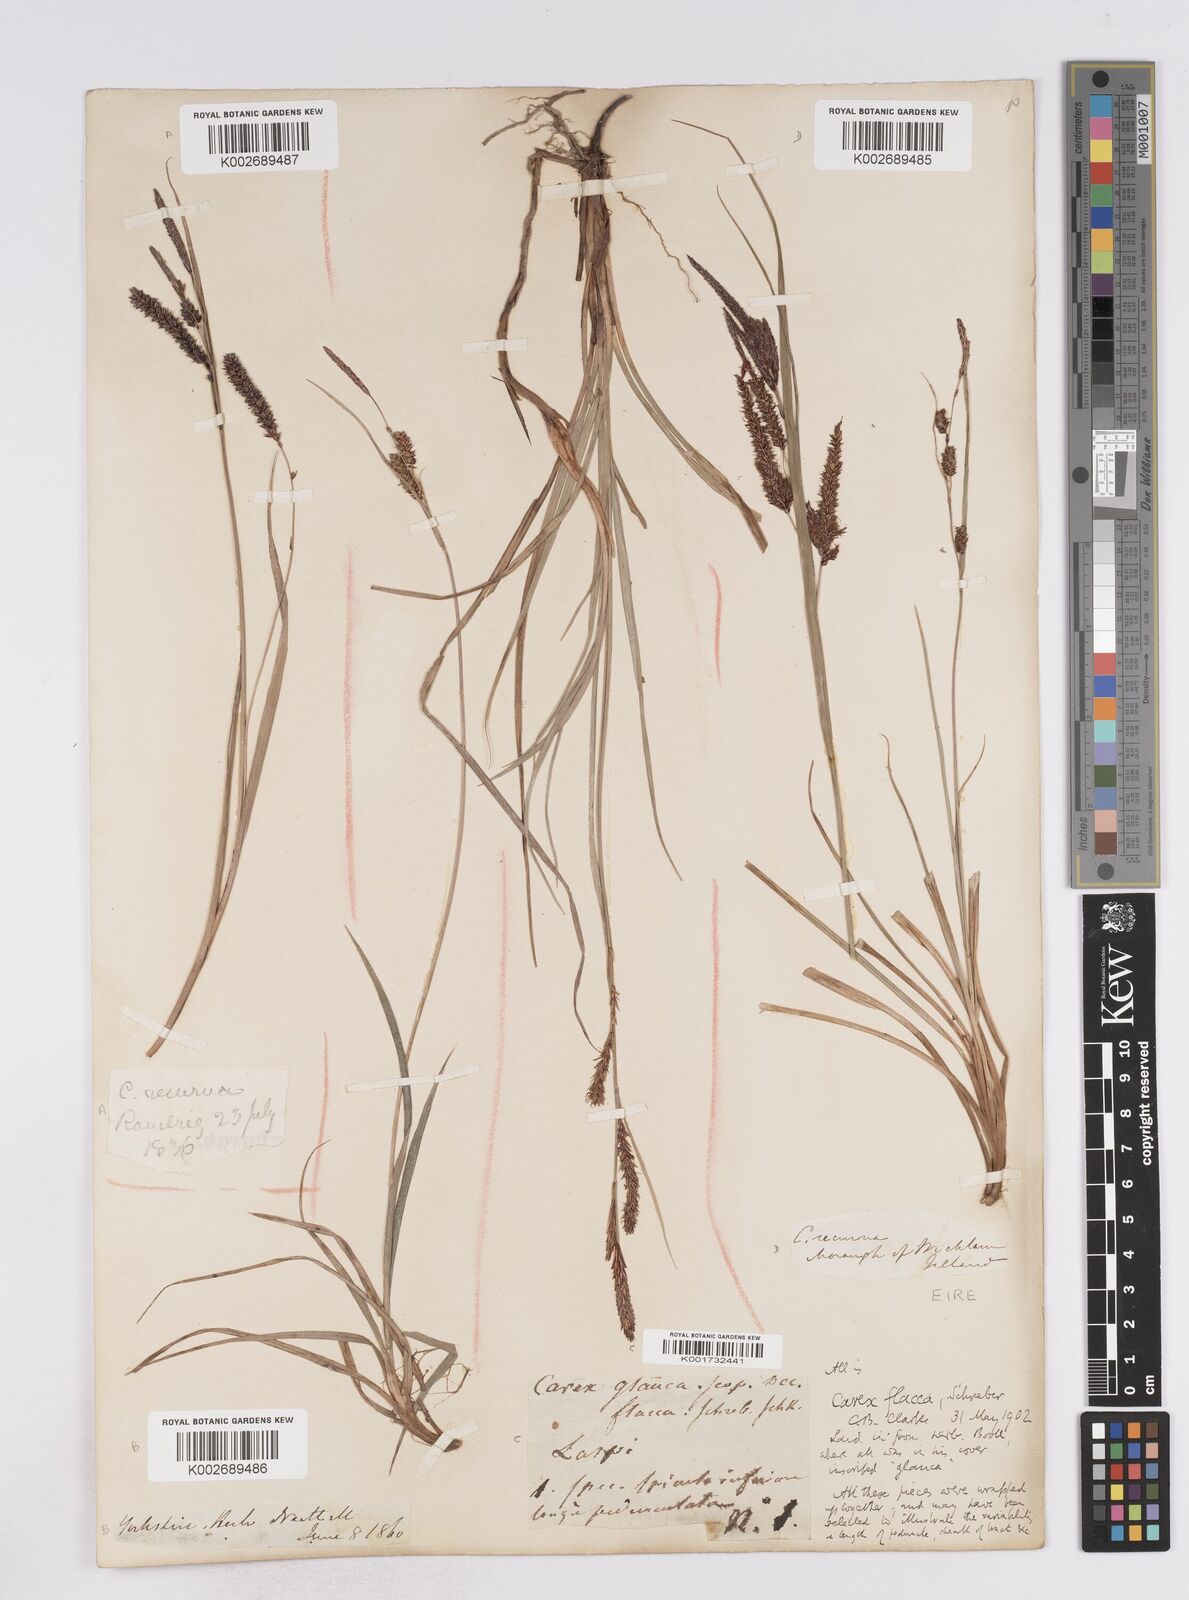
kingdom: Plantae
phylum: Tracheophyta
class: Liliopsida
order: Poales
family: Cyperaceae
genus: Carex
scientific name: Carex flacca
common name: Glaucous sedge
